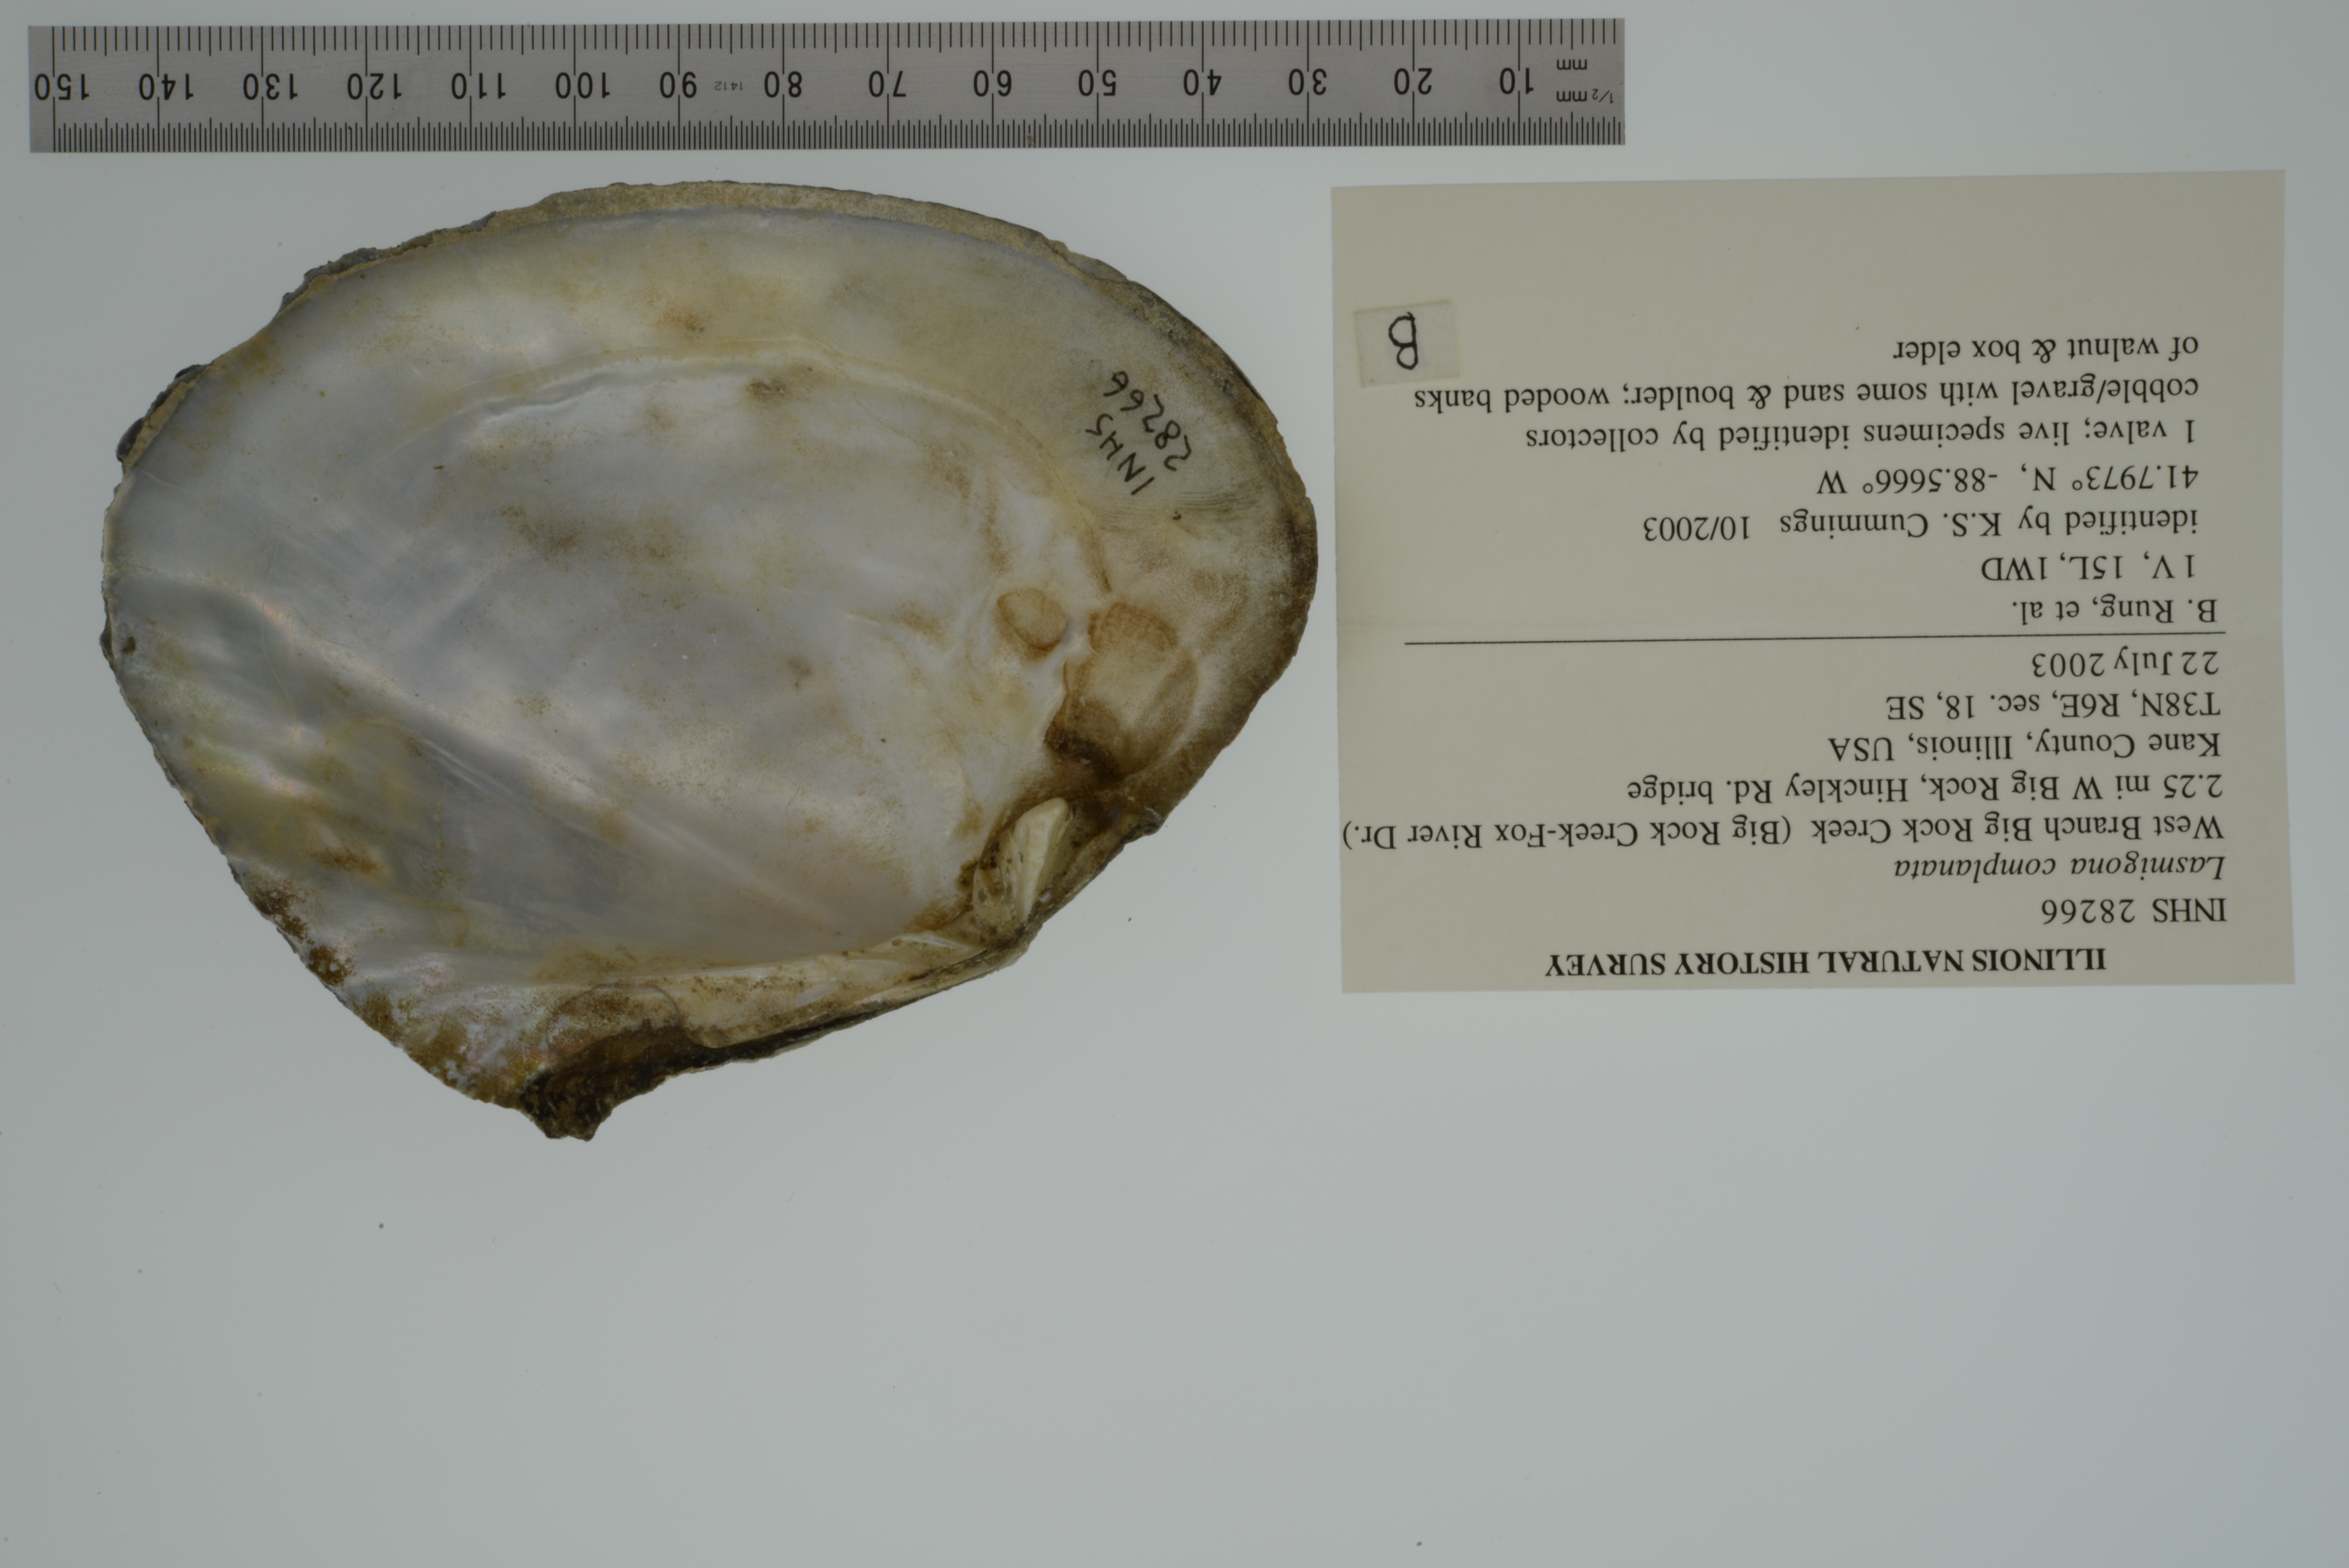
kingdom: Animalia
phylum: Mollusca
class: Bivalvia
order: Unionida
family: Unionidae
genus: Lasmigona
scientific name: Lasmigona complanata
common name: White heelsplitter
